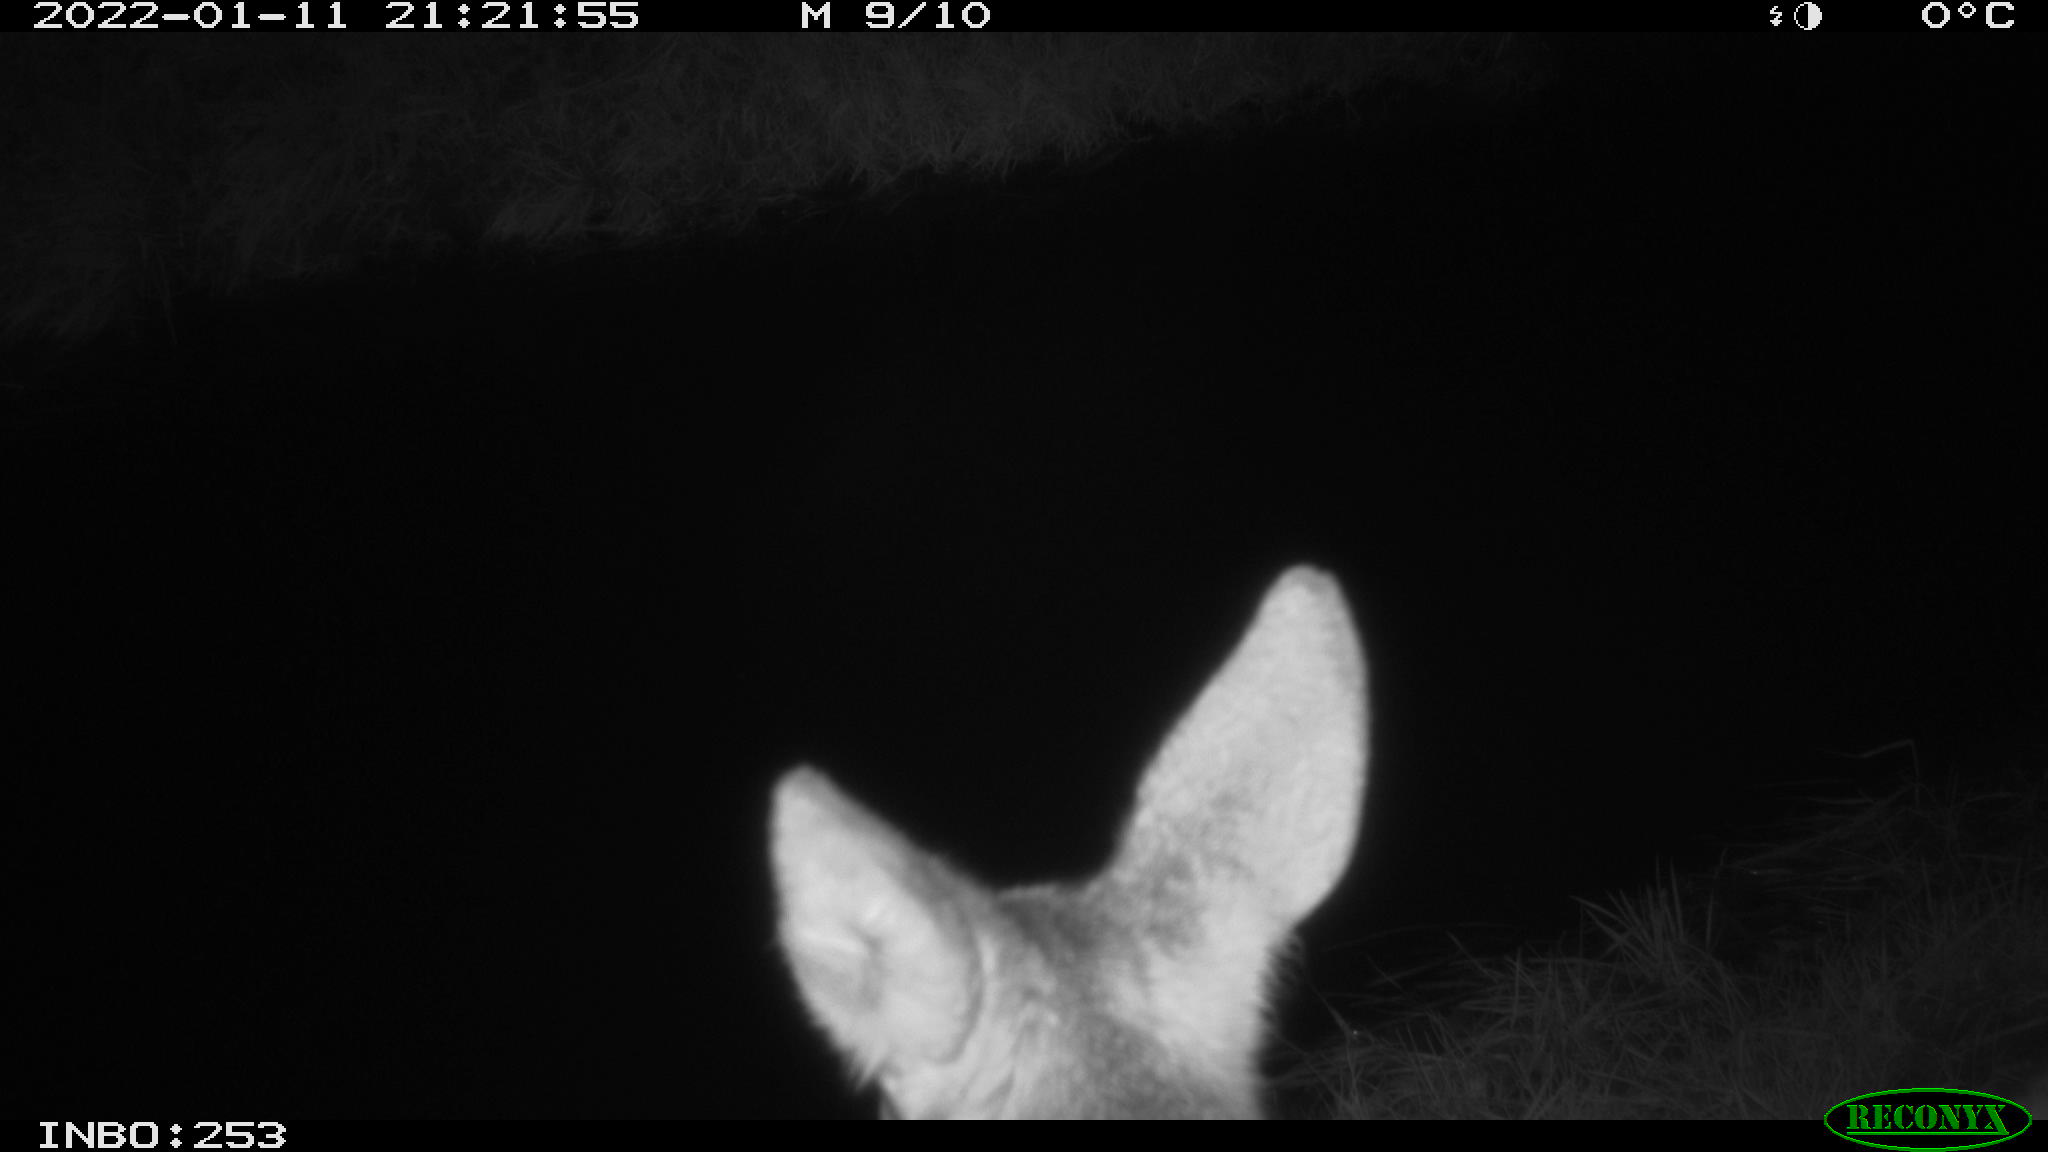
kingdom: Animalia
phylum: Chordata
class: Mammalia
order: Artiodactyla
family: Cervidae
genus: Capreolus
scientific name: Capreolus capreolus
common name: Western roe deer
